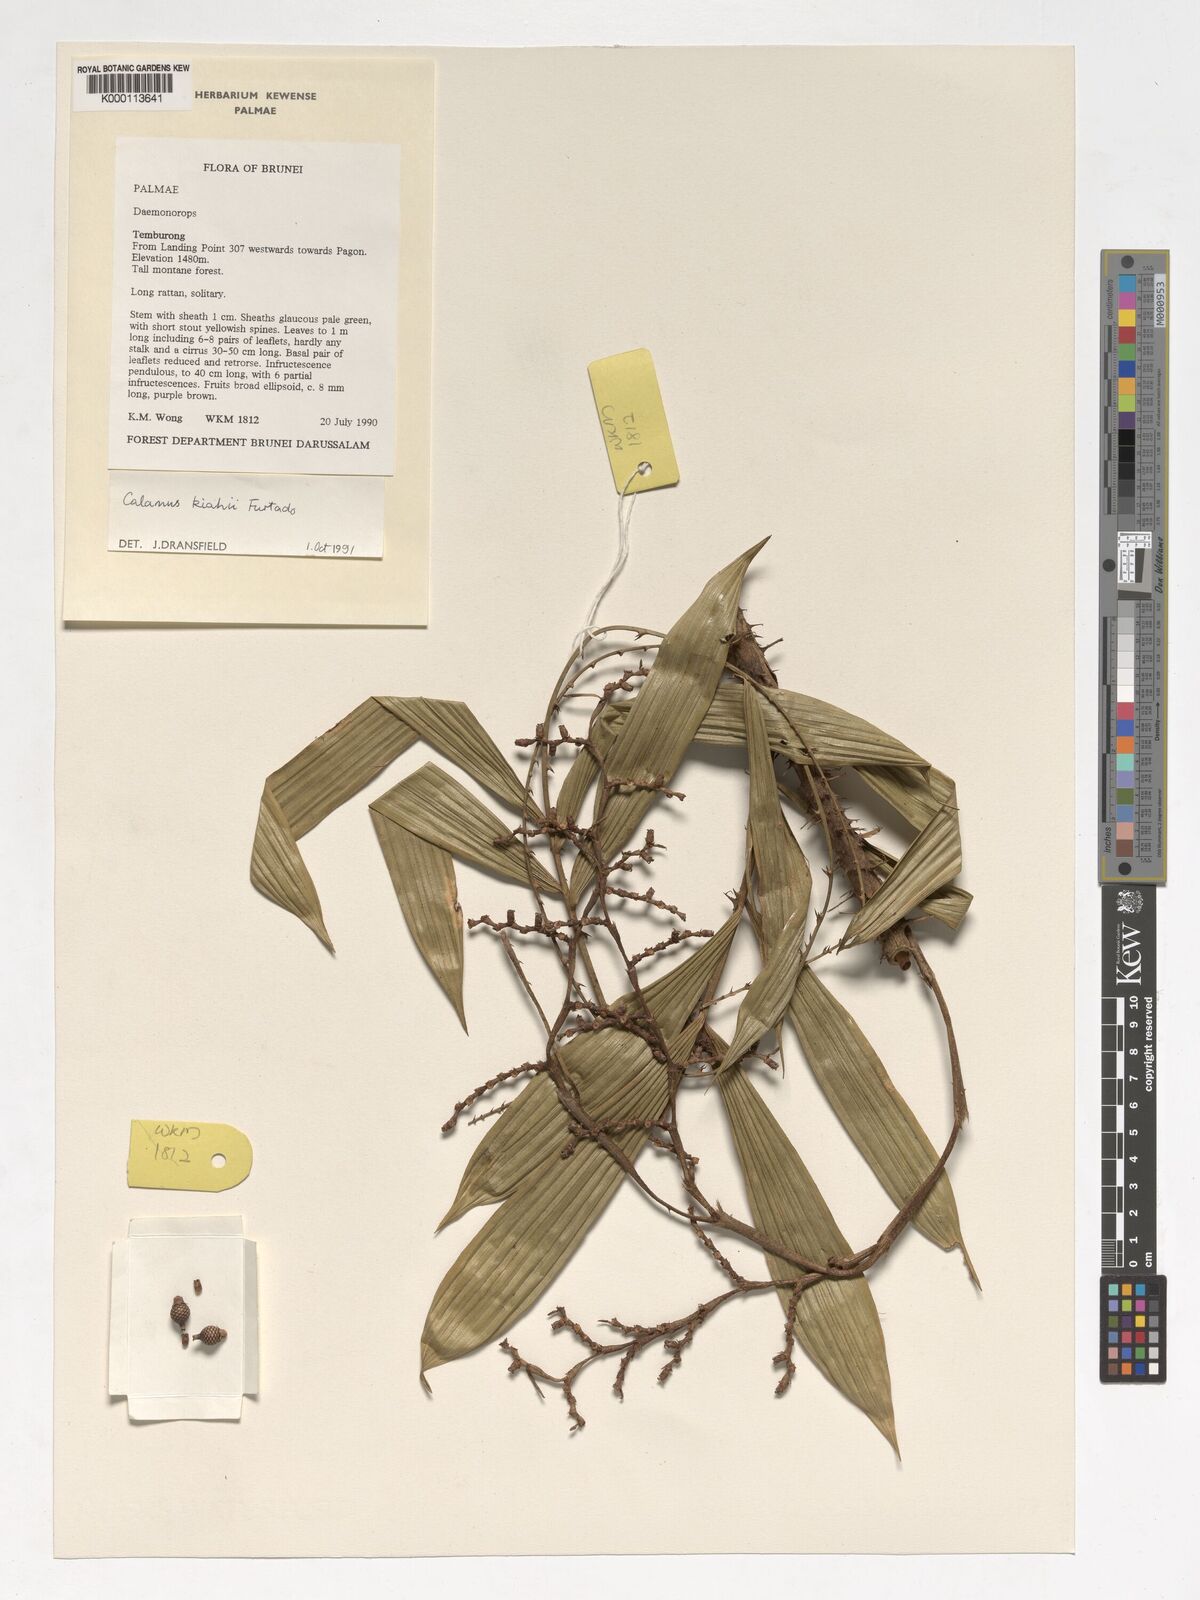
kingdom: Plantae
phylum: Tracheophyta
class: Liliopsida
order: Arecales
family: Arecaceae
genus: Calamus
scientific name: Calamus plicatus
